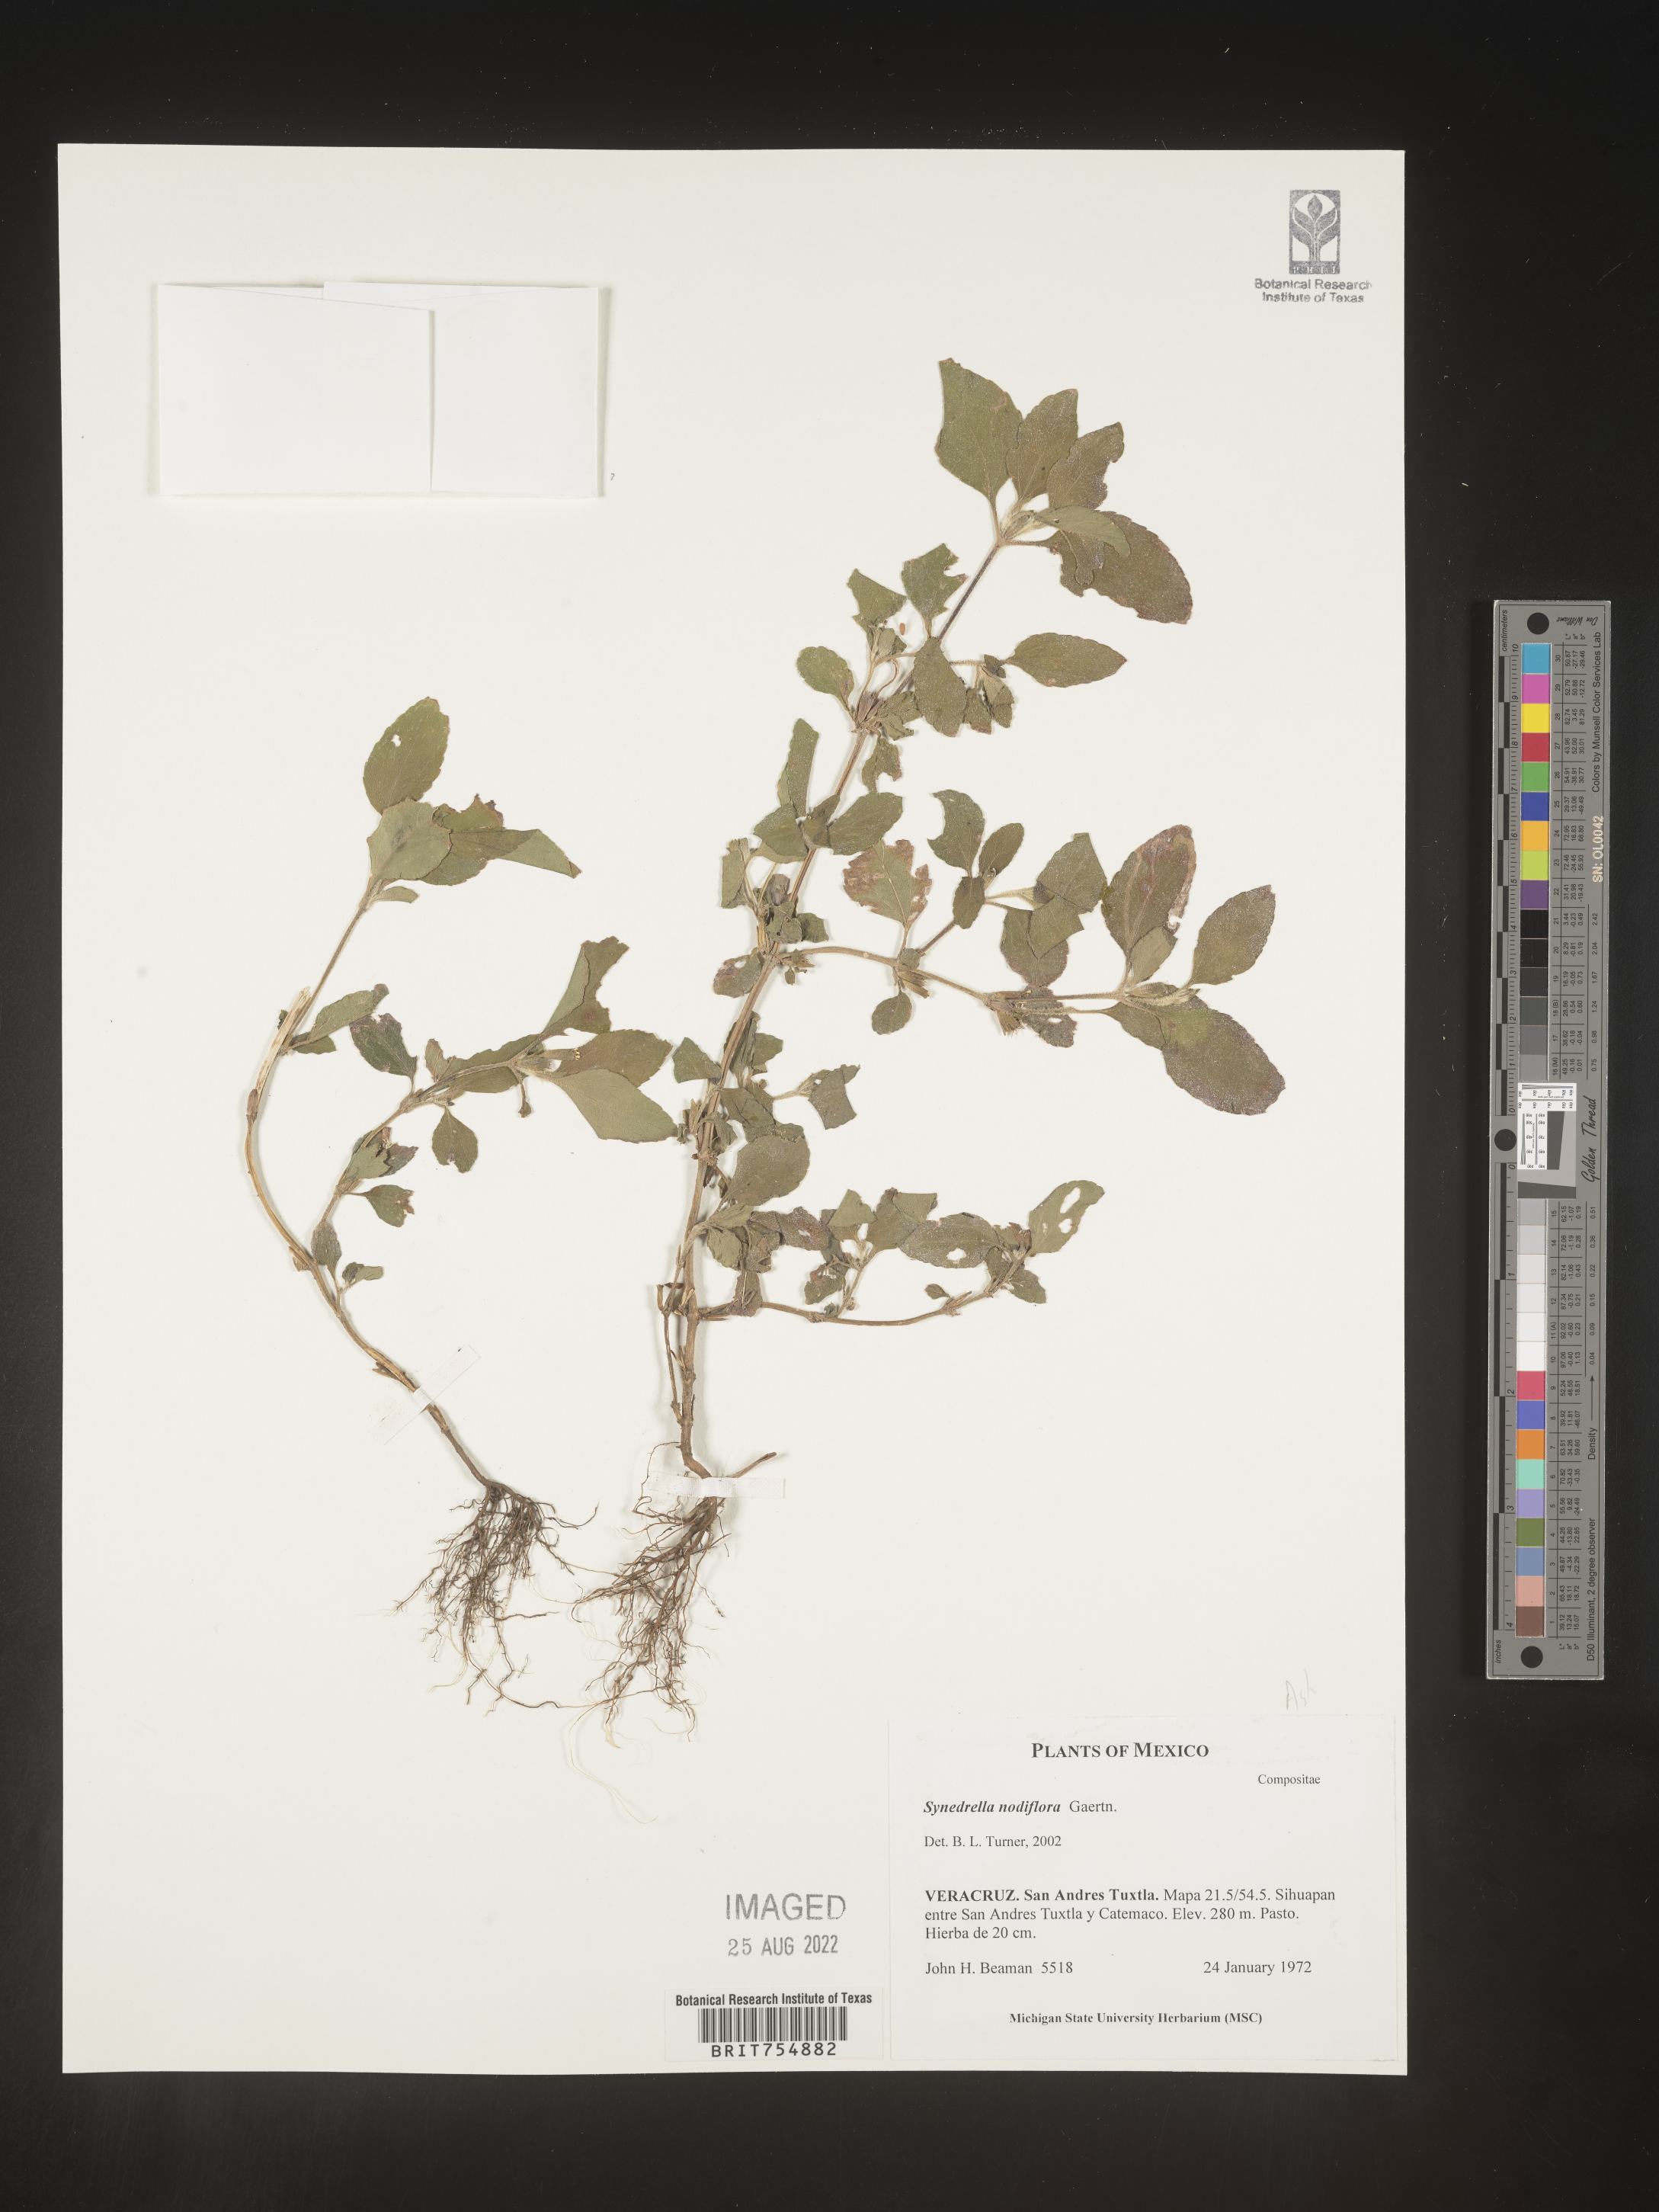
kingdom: Plantae
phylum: Tracheophyta
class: Magnoliopsida
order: Asterales
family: Asteraceae
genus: Synedrella
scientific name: Synedrella
